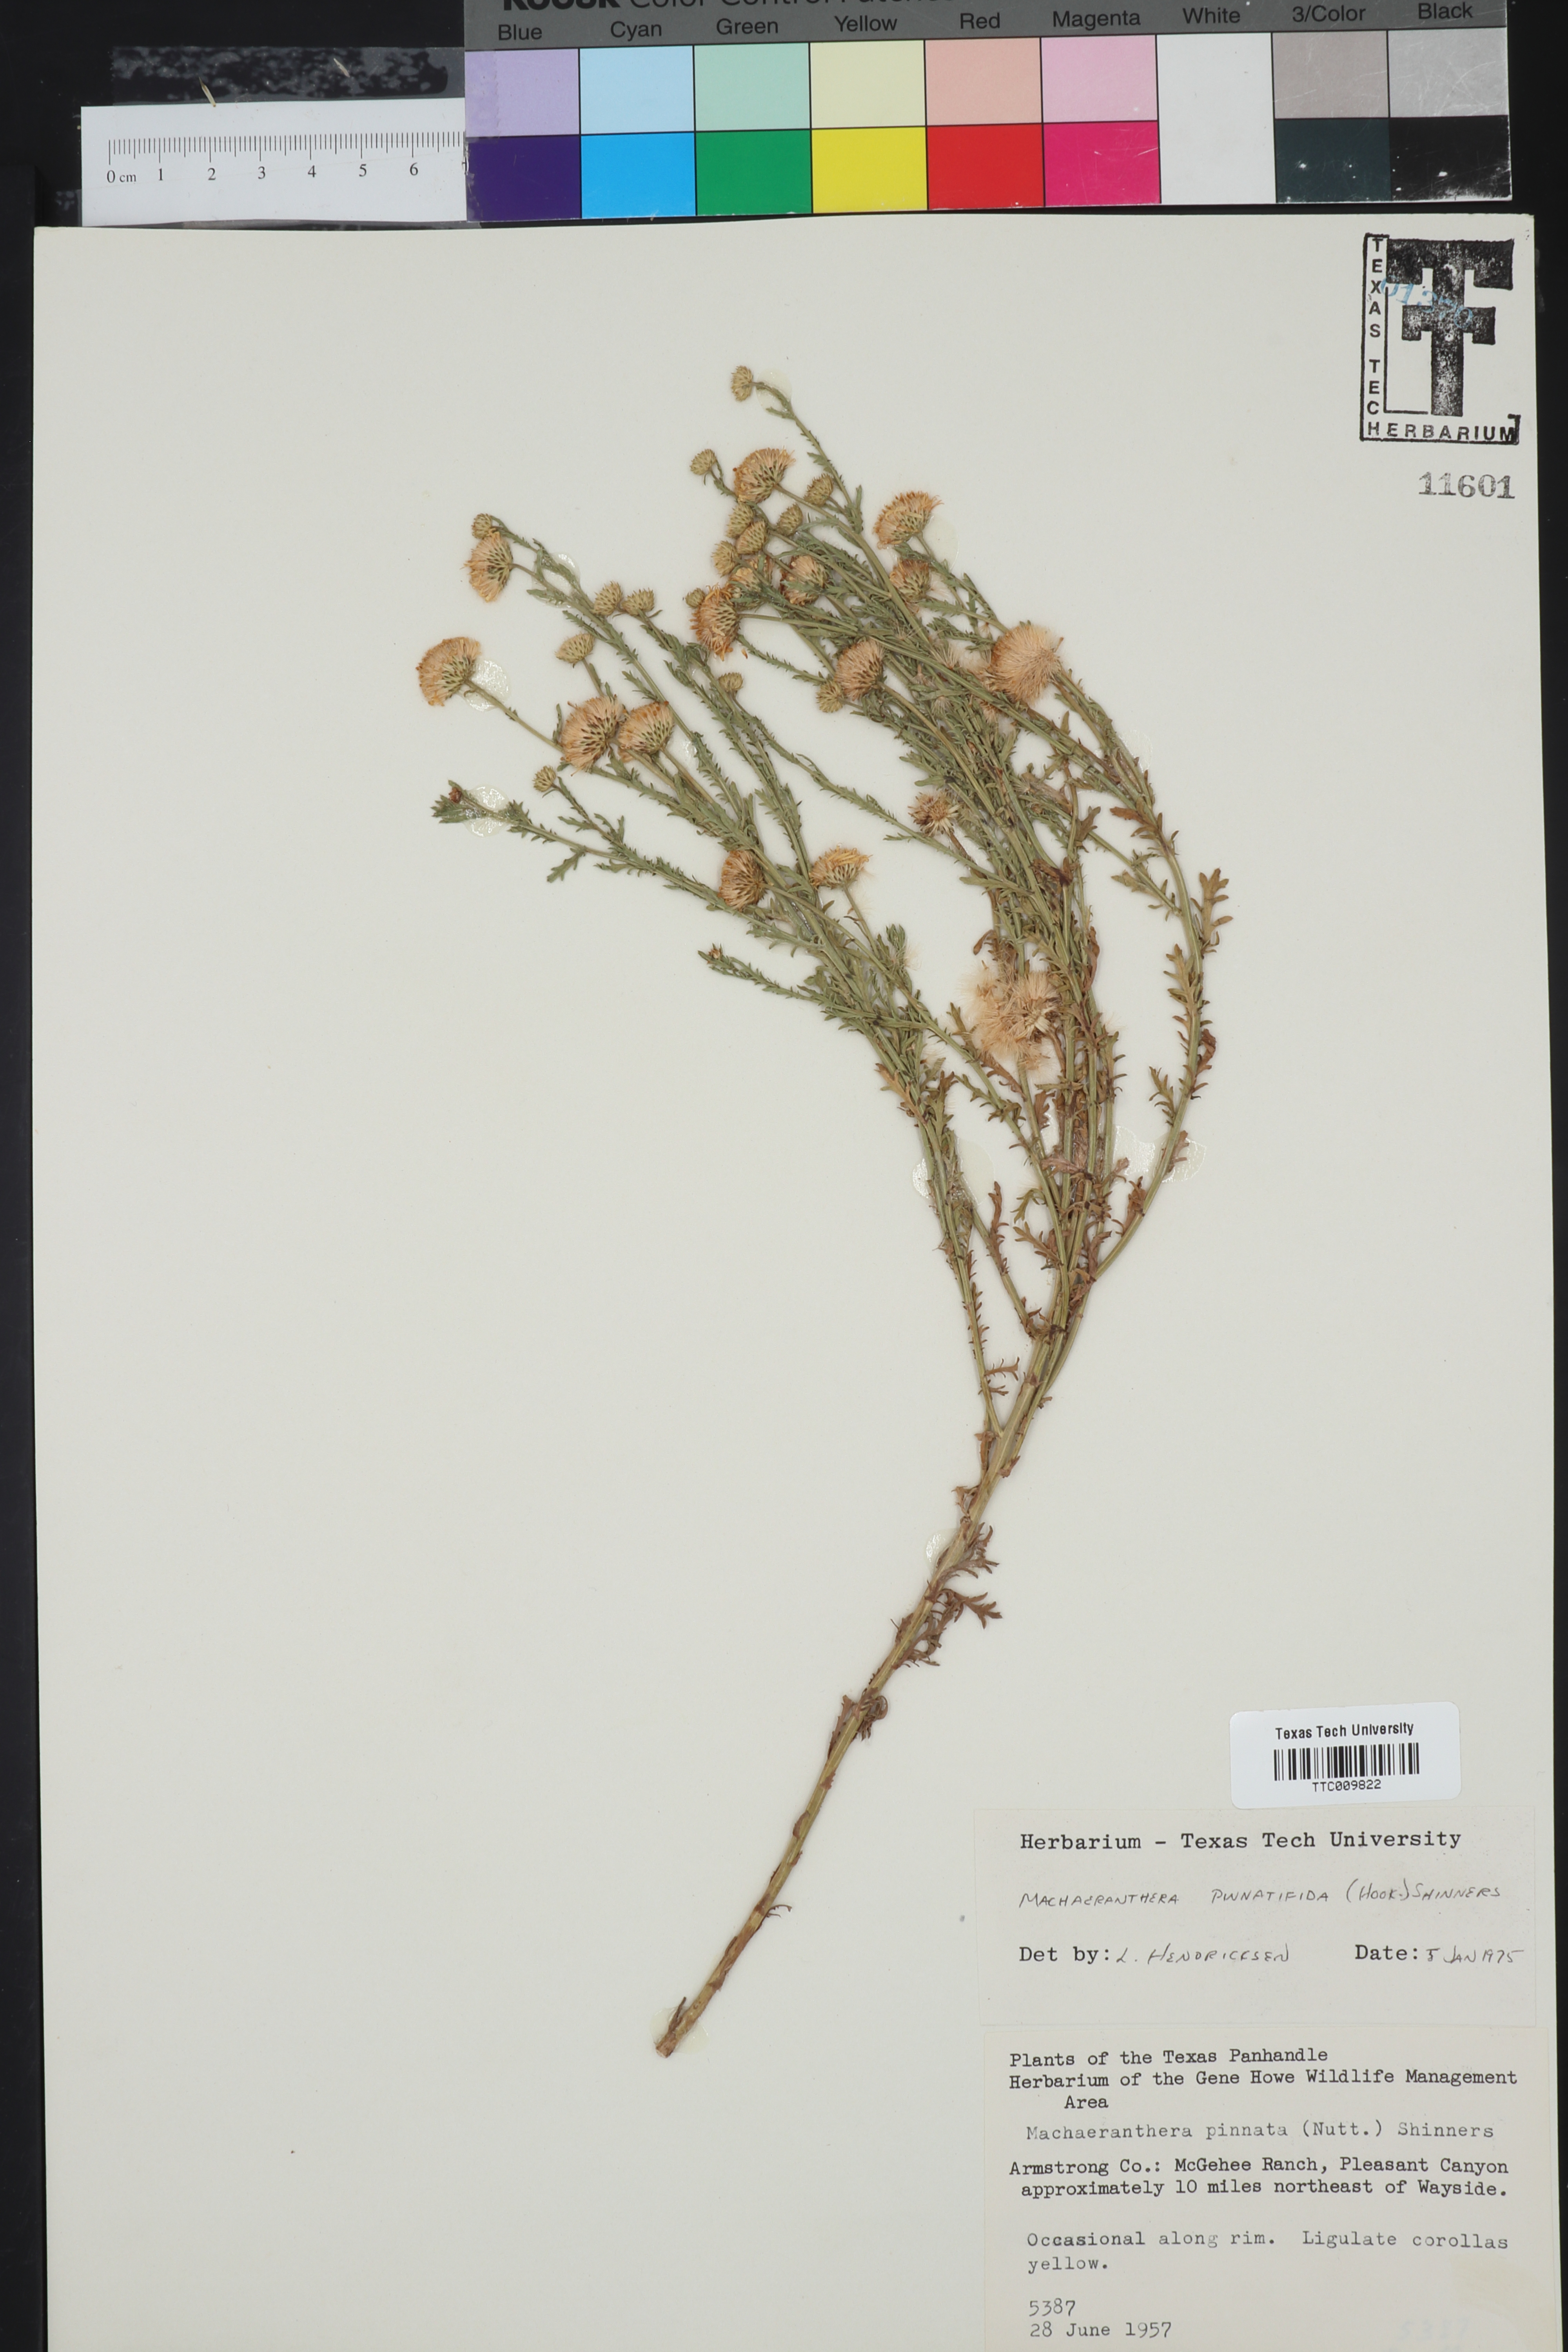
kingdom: Plantae
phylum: Tracheophyta
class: Magnoliopsida
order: Asterales
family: Asteraceae
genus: Xanthisma
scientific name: Xanthisma spinulosum
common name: Spiny goldenweed
